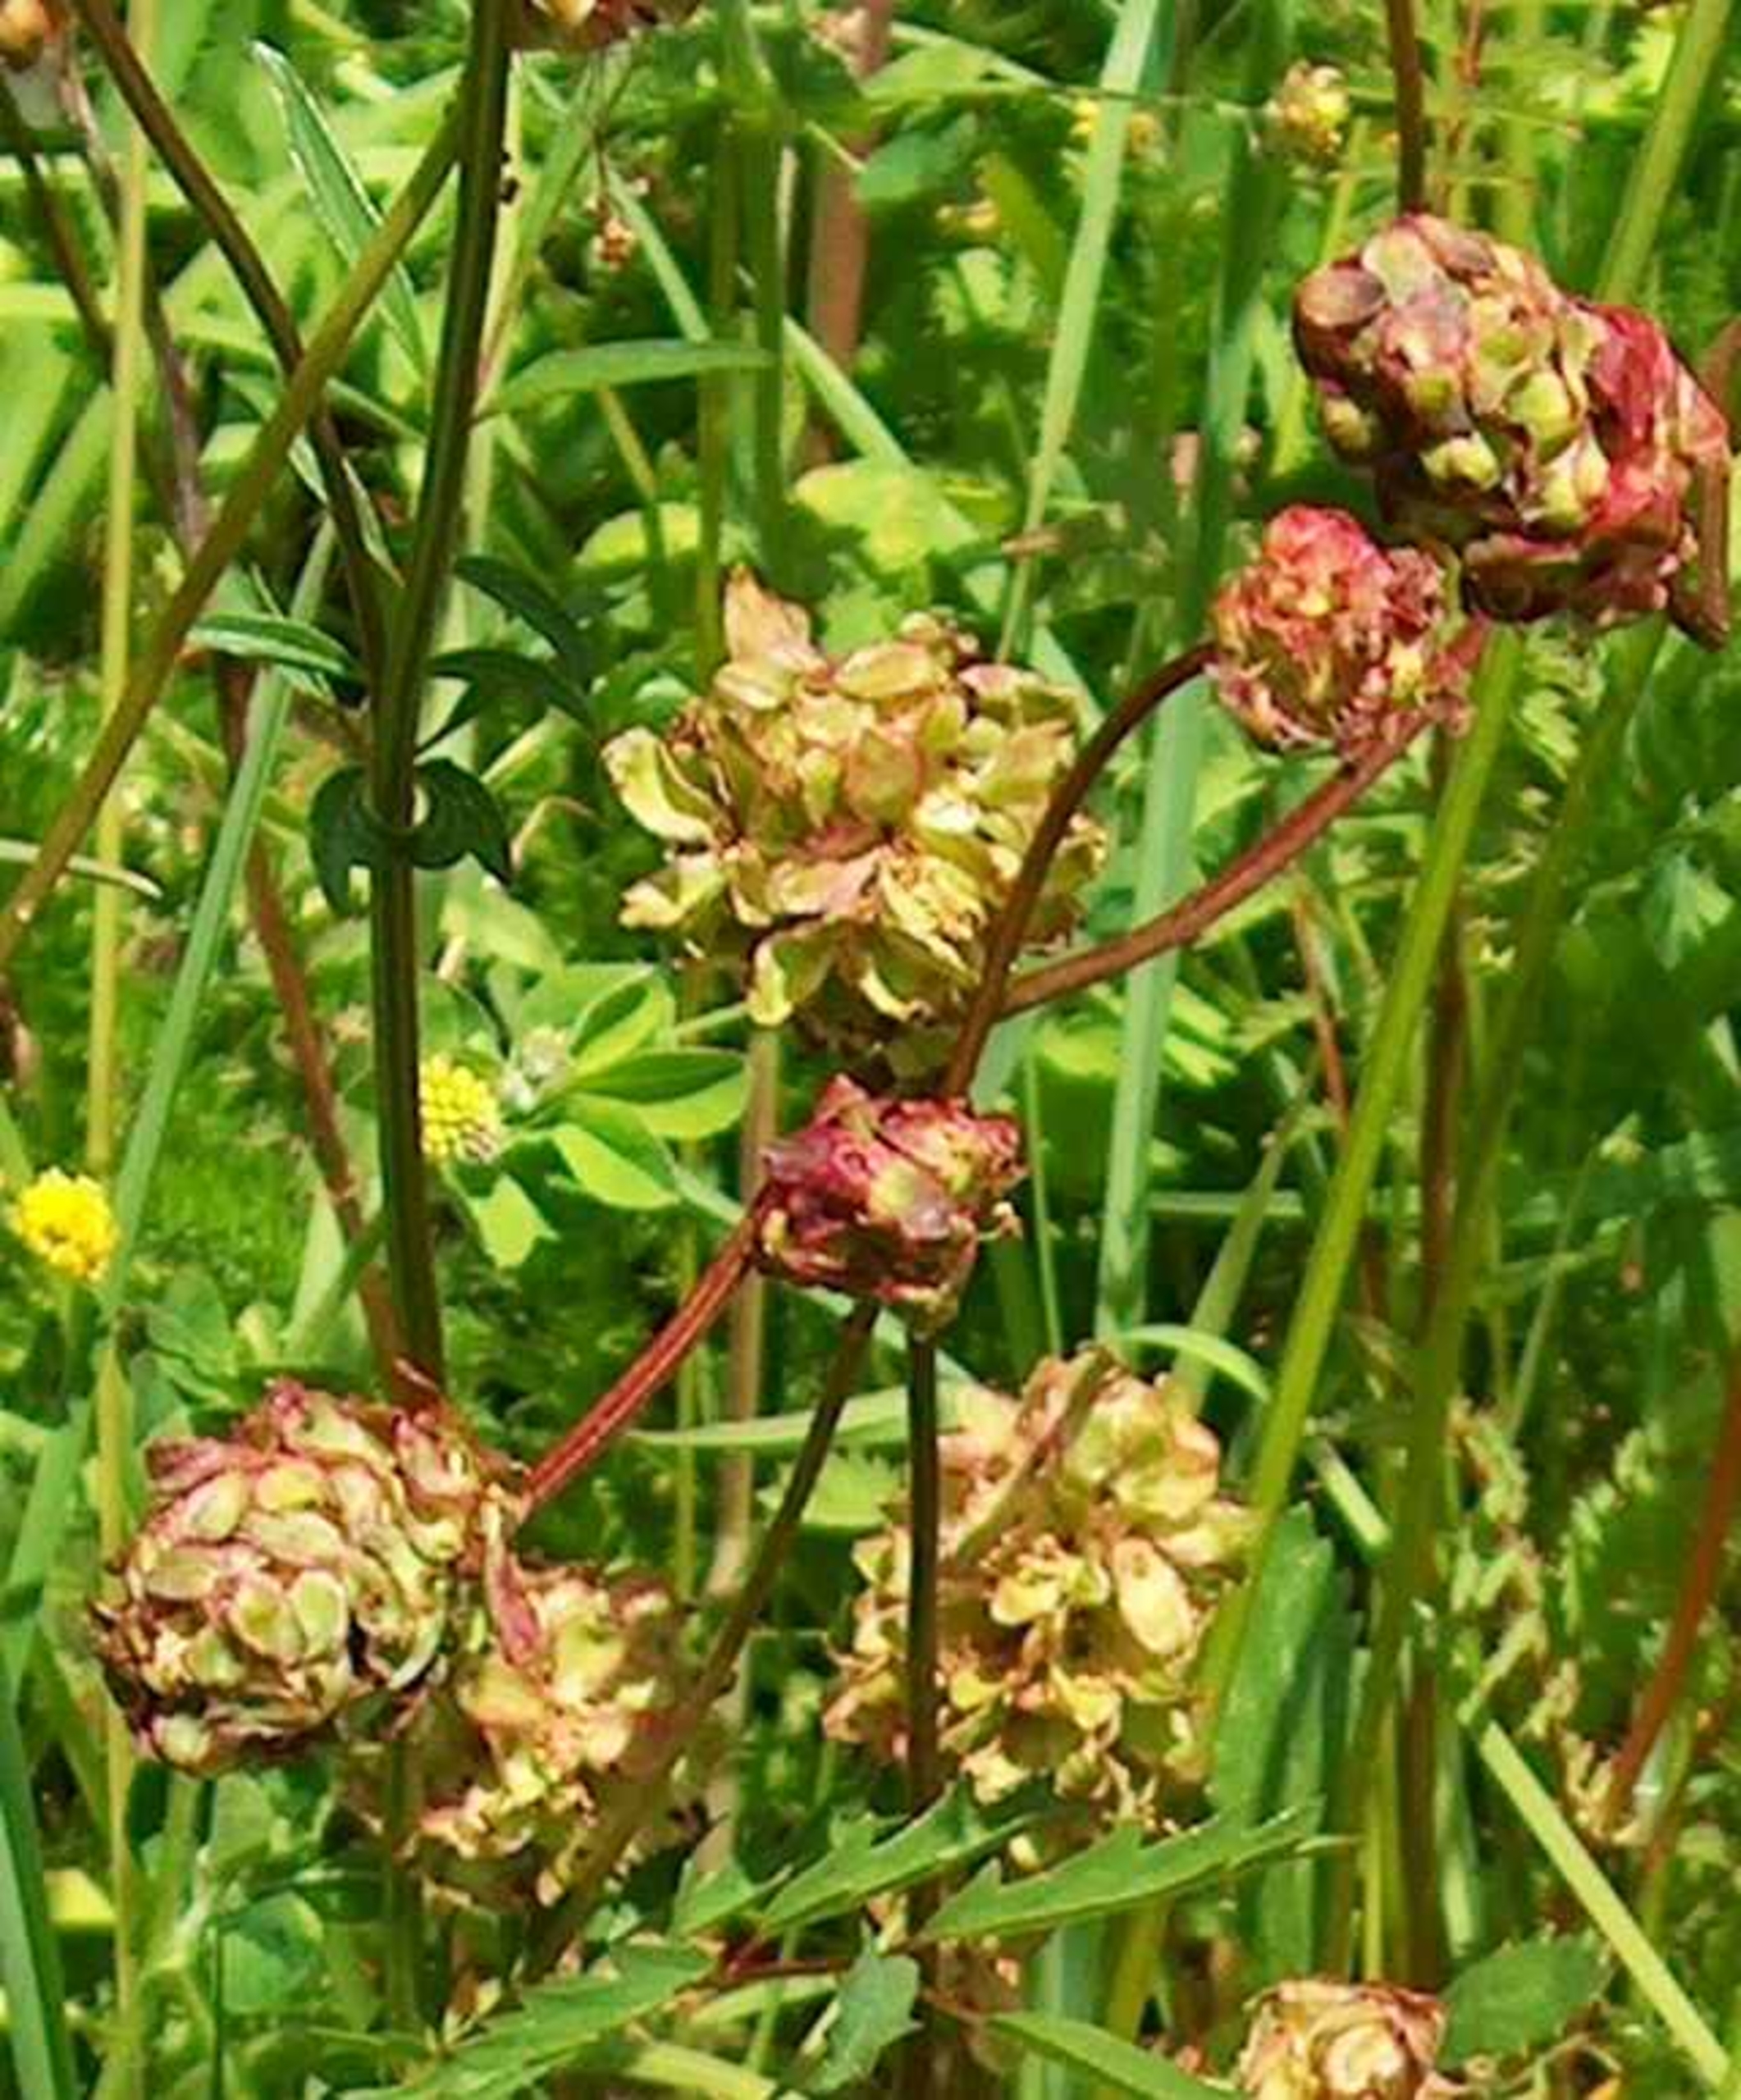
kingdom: Plantae
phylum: Tracheophyta
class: Magnoliopsida
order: Rosales
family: Rosaceae
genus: Poterium
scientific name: Poterium sanguisorba
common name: Vingefrøet bibernelle
